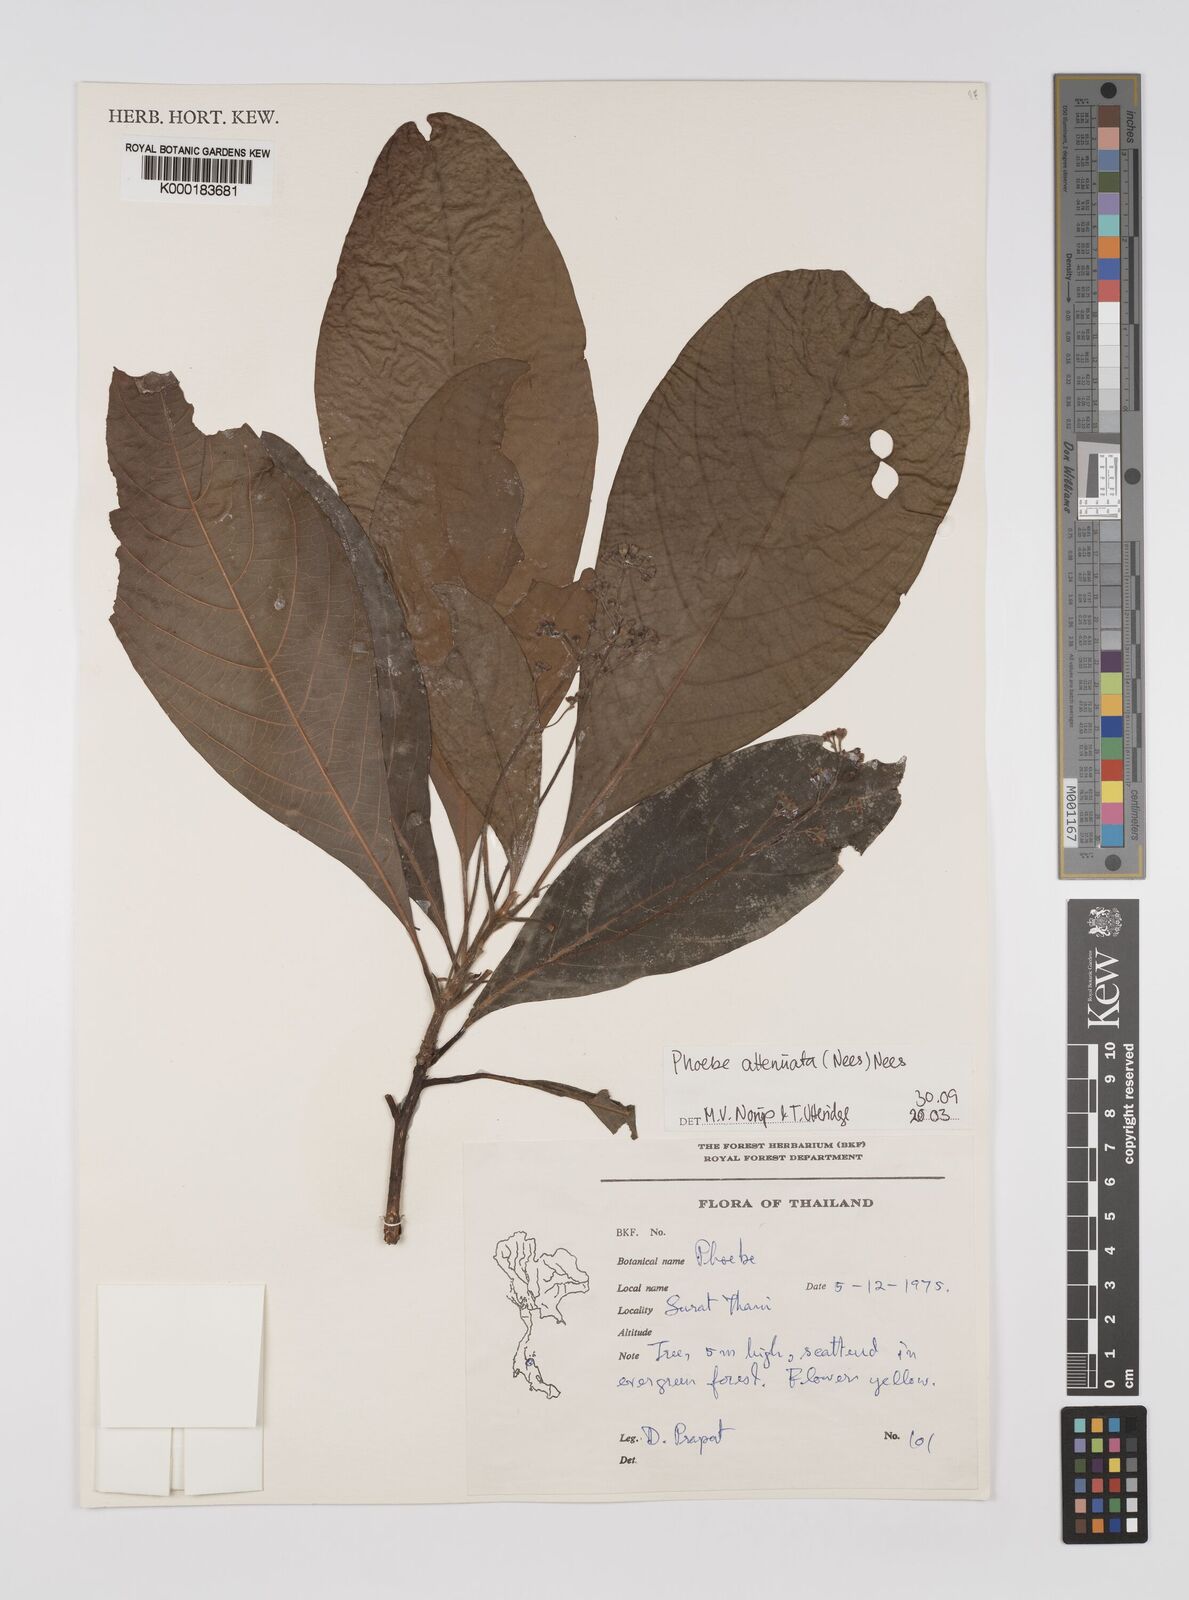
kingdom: Plantae
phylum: Tracheophyta
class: Magnoliopsida
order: Laurales
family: Lauraceae
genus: Phoebe
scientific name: Phoebe attenuata
